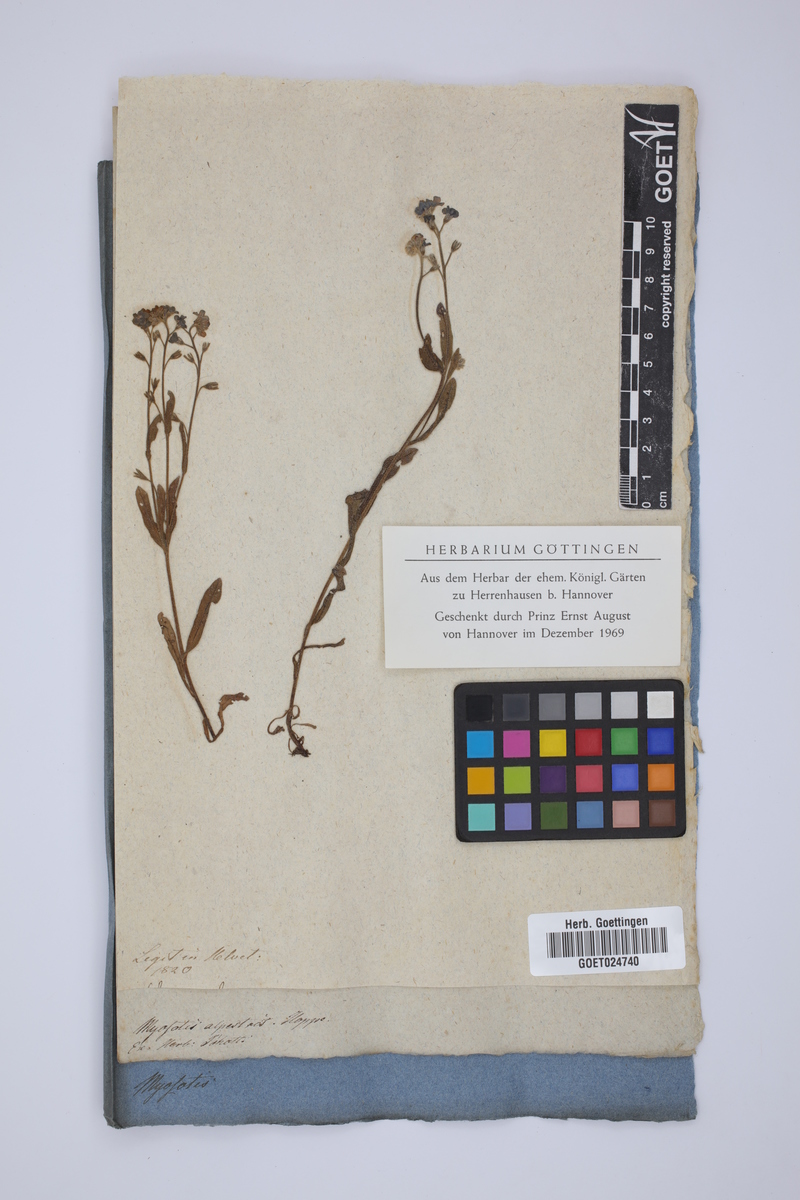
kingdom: Plantae
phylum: Tracheophyta
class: Magnoliopsida
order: Boraginales
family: Boraginaceae
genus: Myosotis
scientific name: Myosotis alpestris
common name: Alpine forget-me-not
